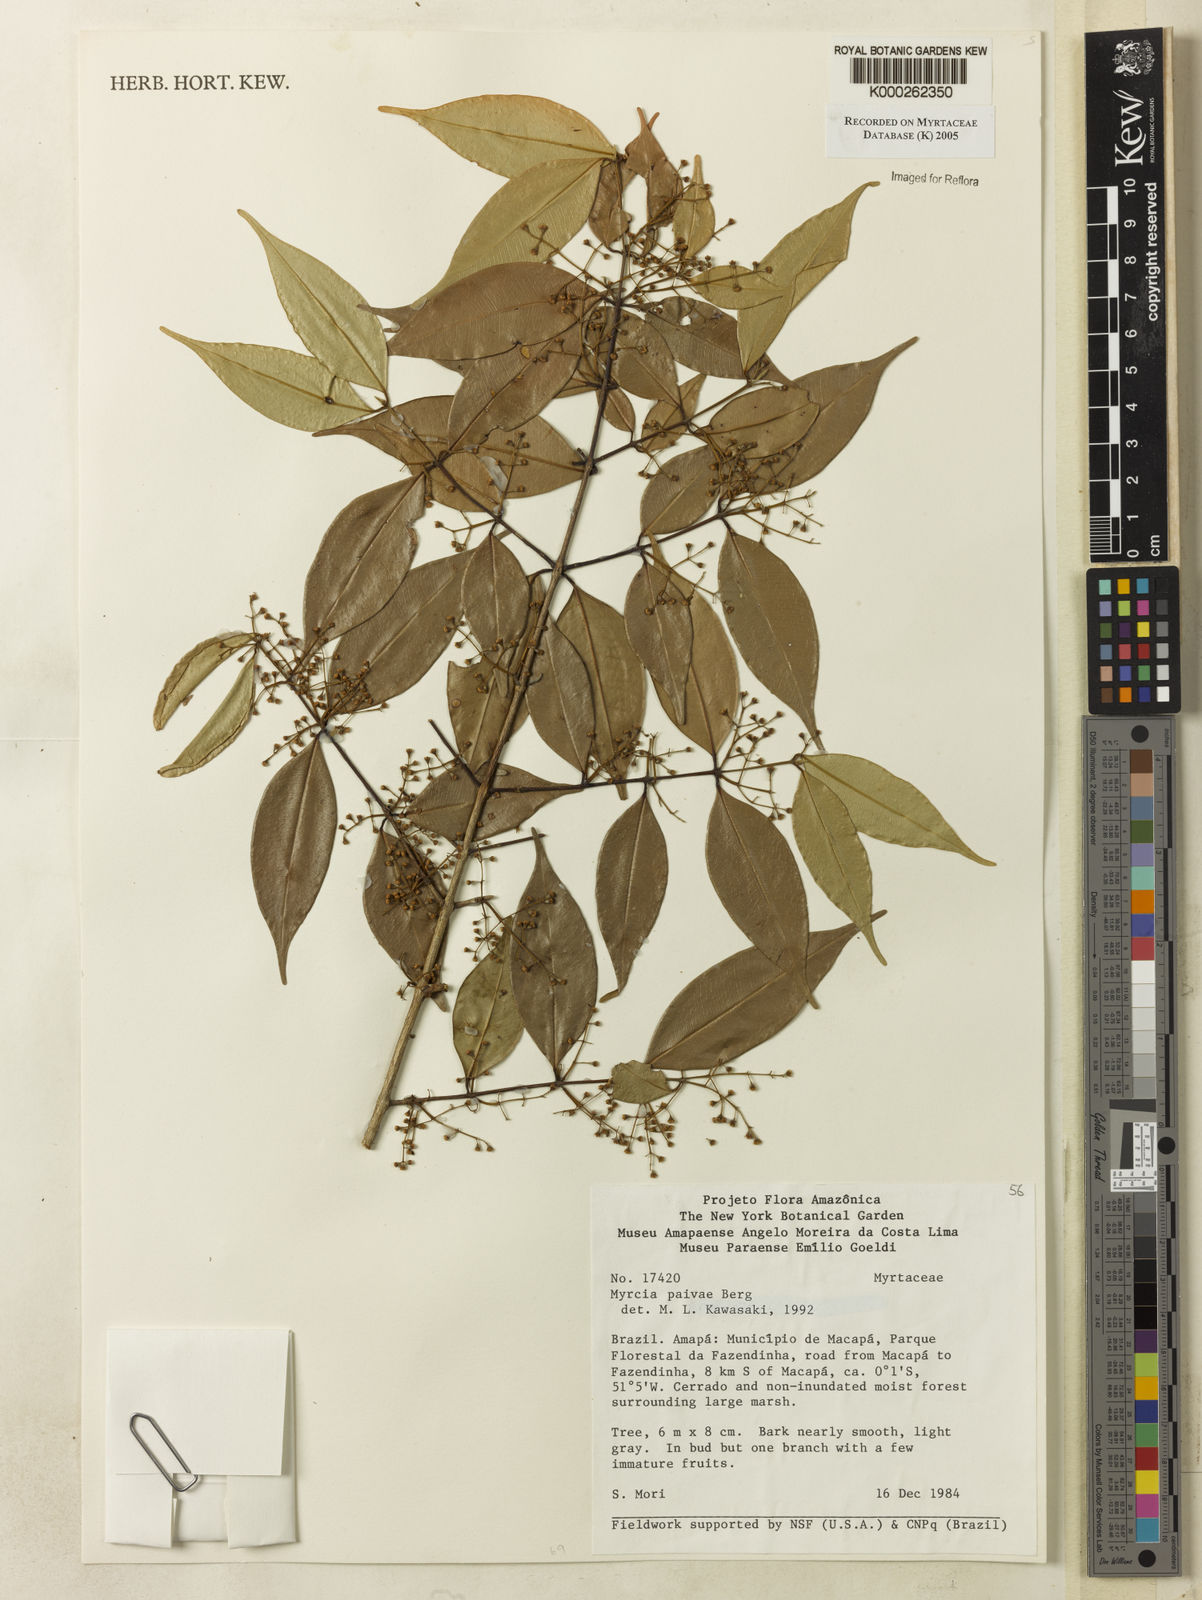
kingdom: Plantae
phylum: Tracheophyta
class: Magnoliopsida
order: Myrtales
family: Myrtaceae
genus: Myrcia
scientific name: Myrcia paivae
